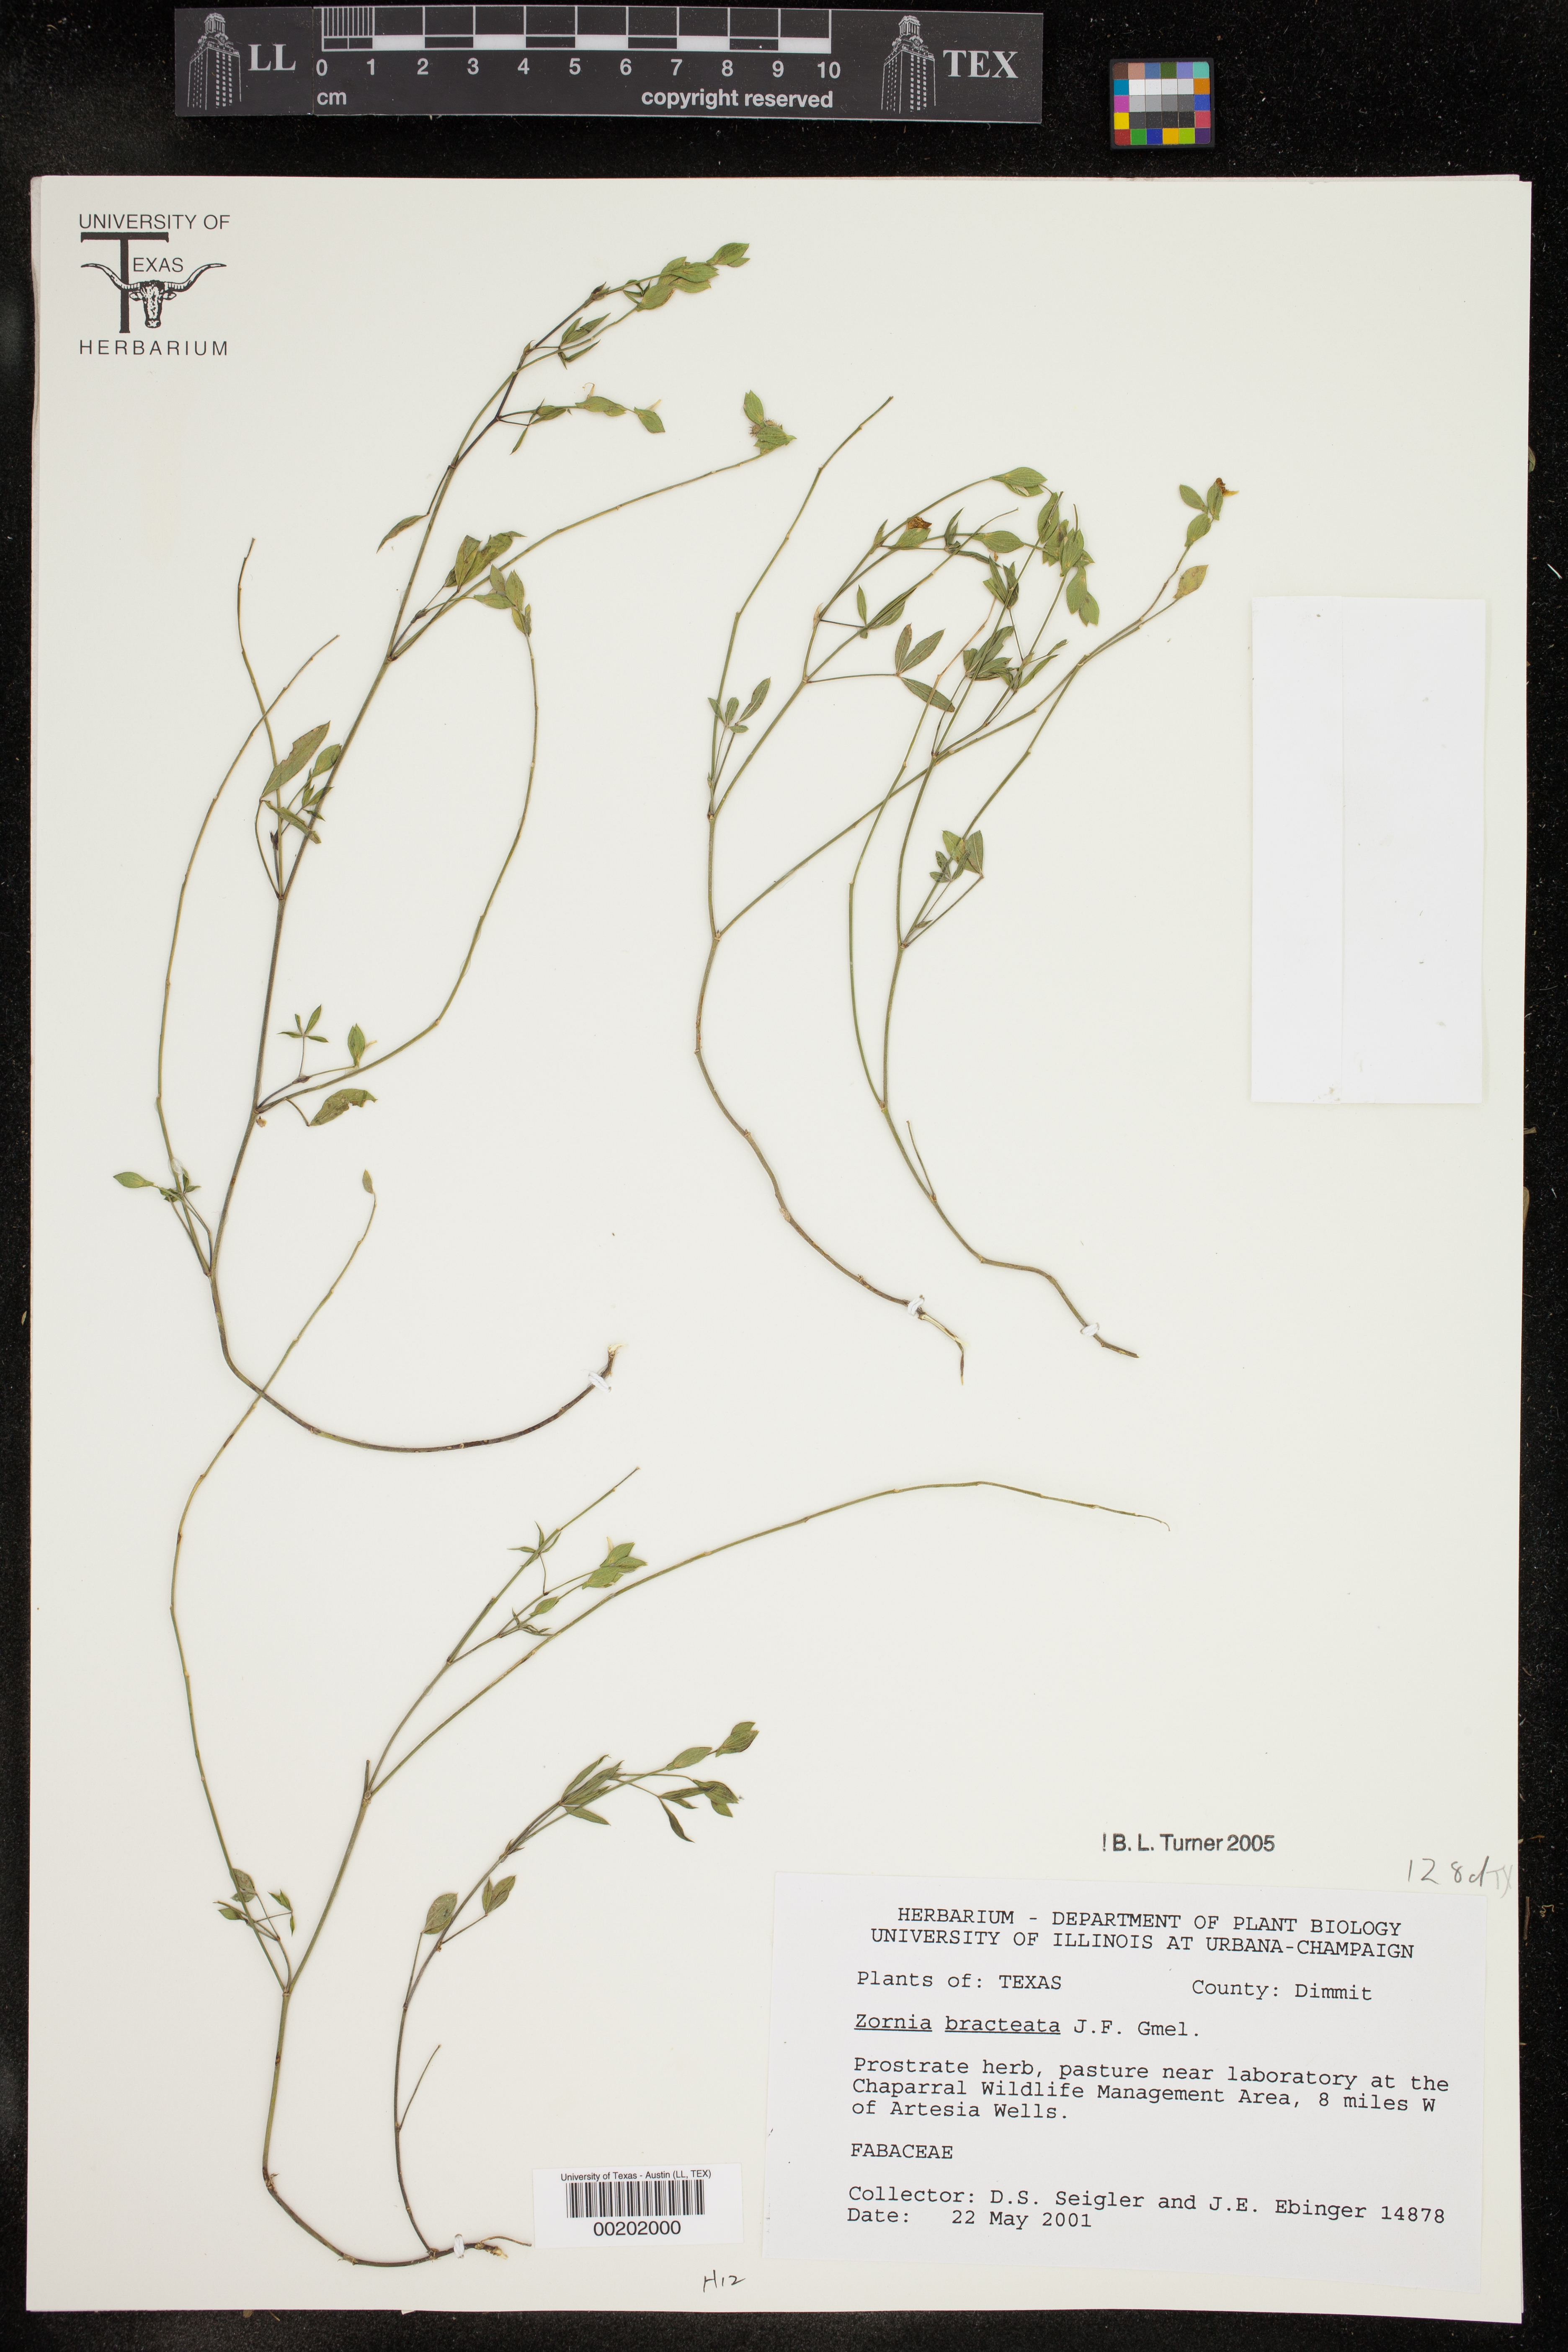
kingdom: Plantae
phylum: Tracheophyta
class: Magnoliopsida
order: Fabales
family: Fabaceae
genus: Zornia
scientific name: Zornia bracteata
